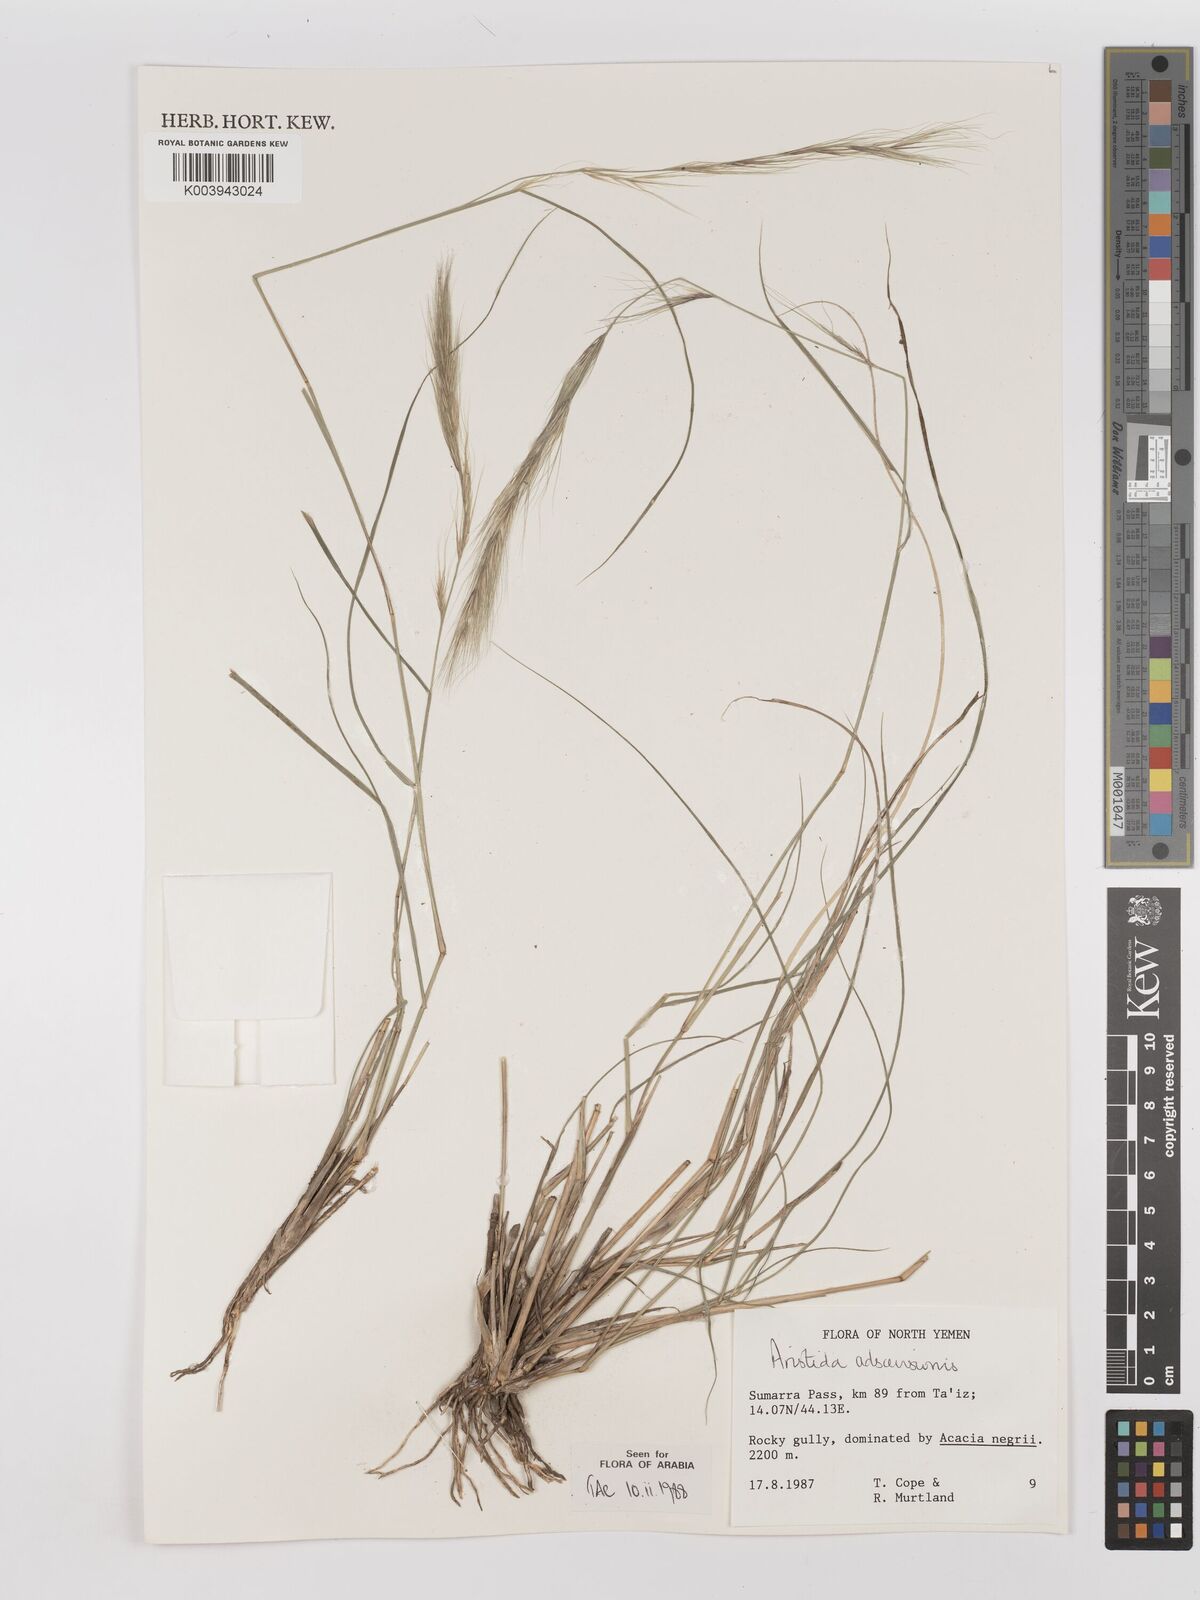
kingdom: Plantae
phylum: Tracheophyta
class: Liliopsida
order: Poales
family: Poaceae
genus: Aristida
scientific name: Aristida adscensionis
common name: Sixweeks threeawn
